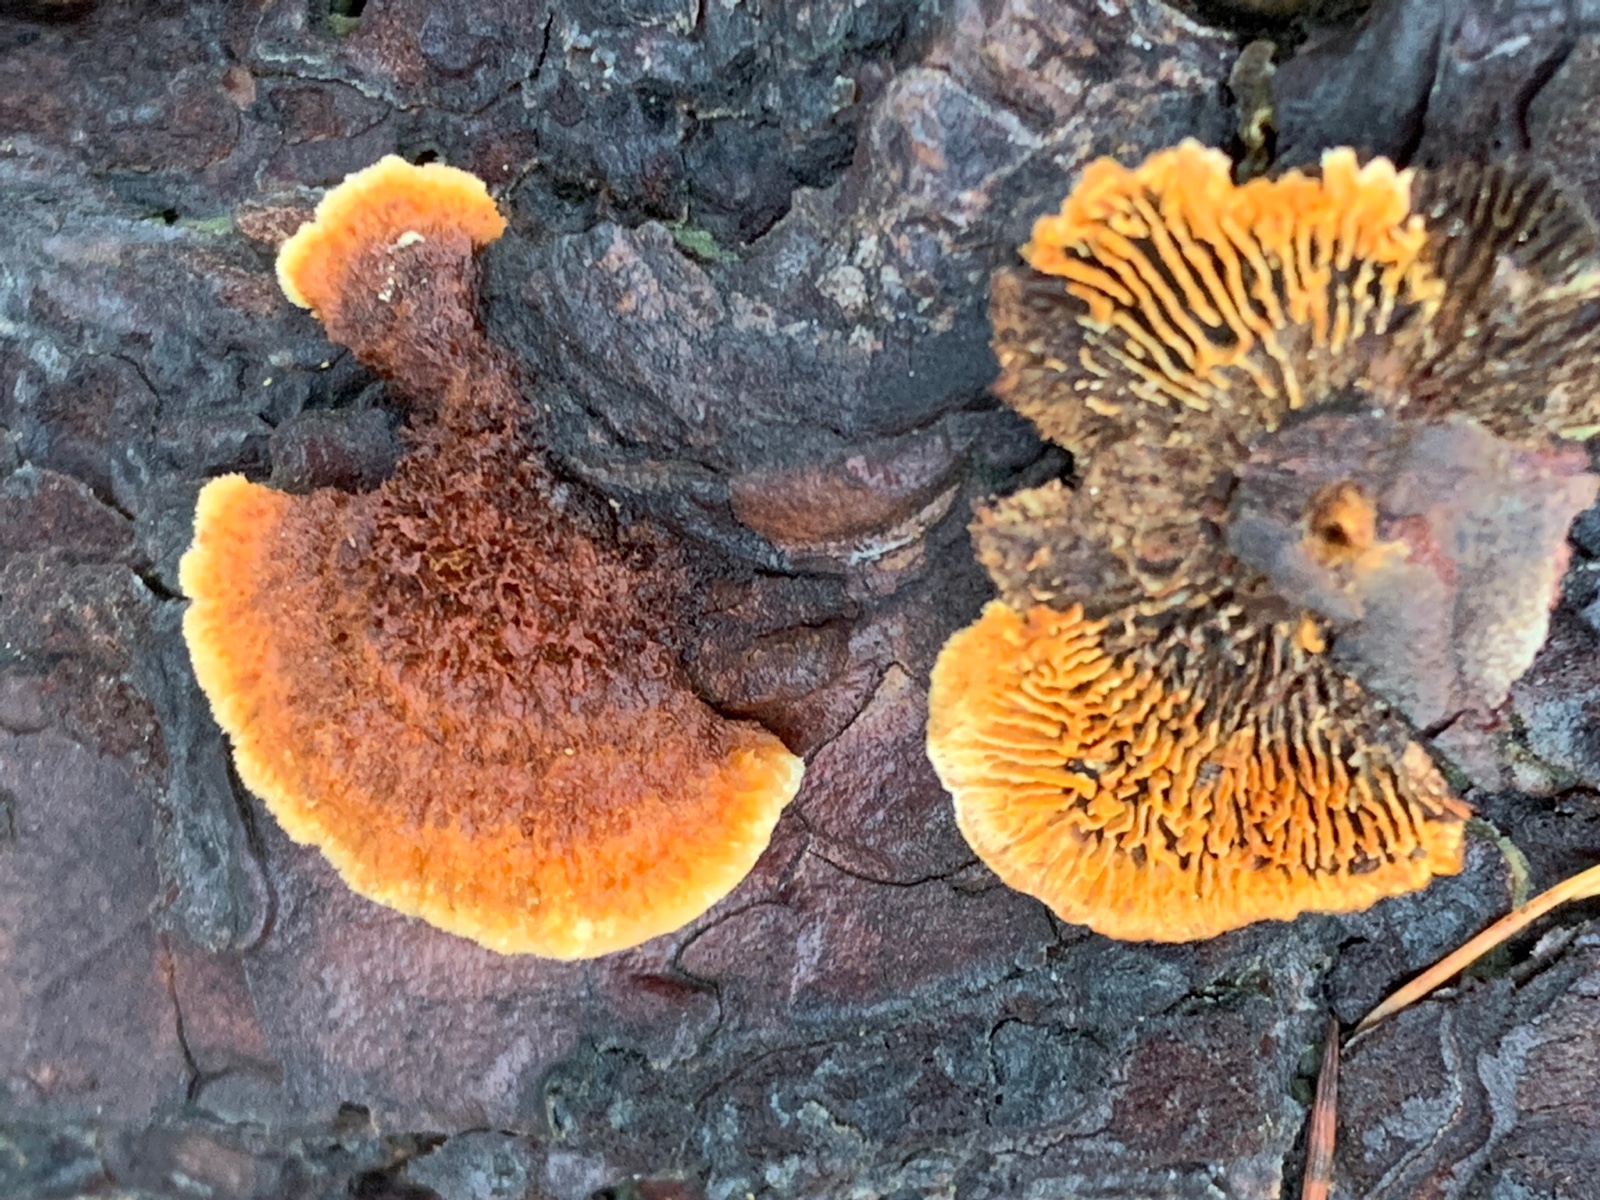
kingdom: Fungi
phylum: Basidiomycota
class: Agaricomycetes
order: Gloeophyllales
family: Gloeophyllaceae
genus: Gloeophyllum
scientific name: Gloeophyllum sepiarium
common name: fyrre-korkhat
